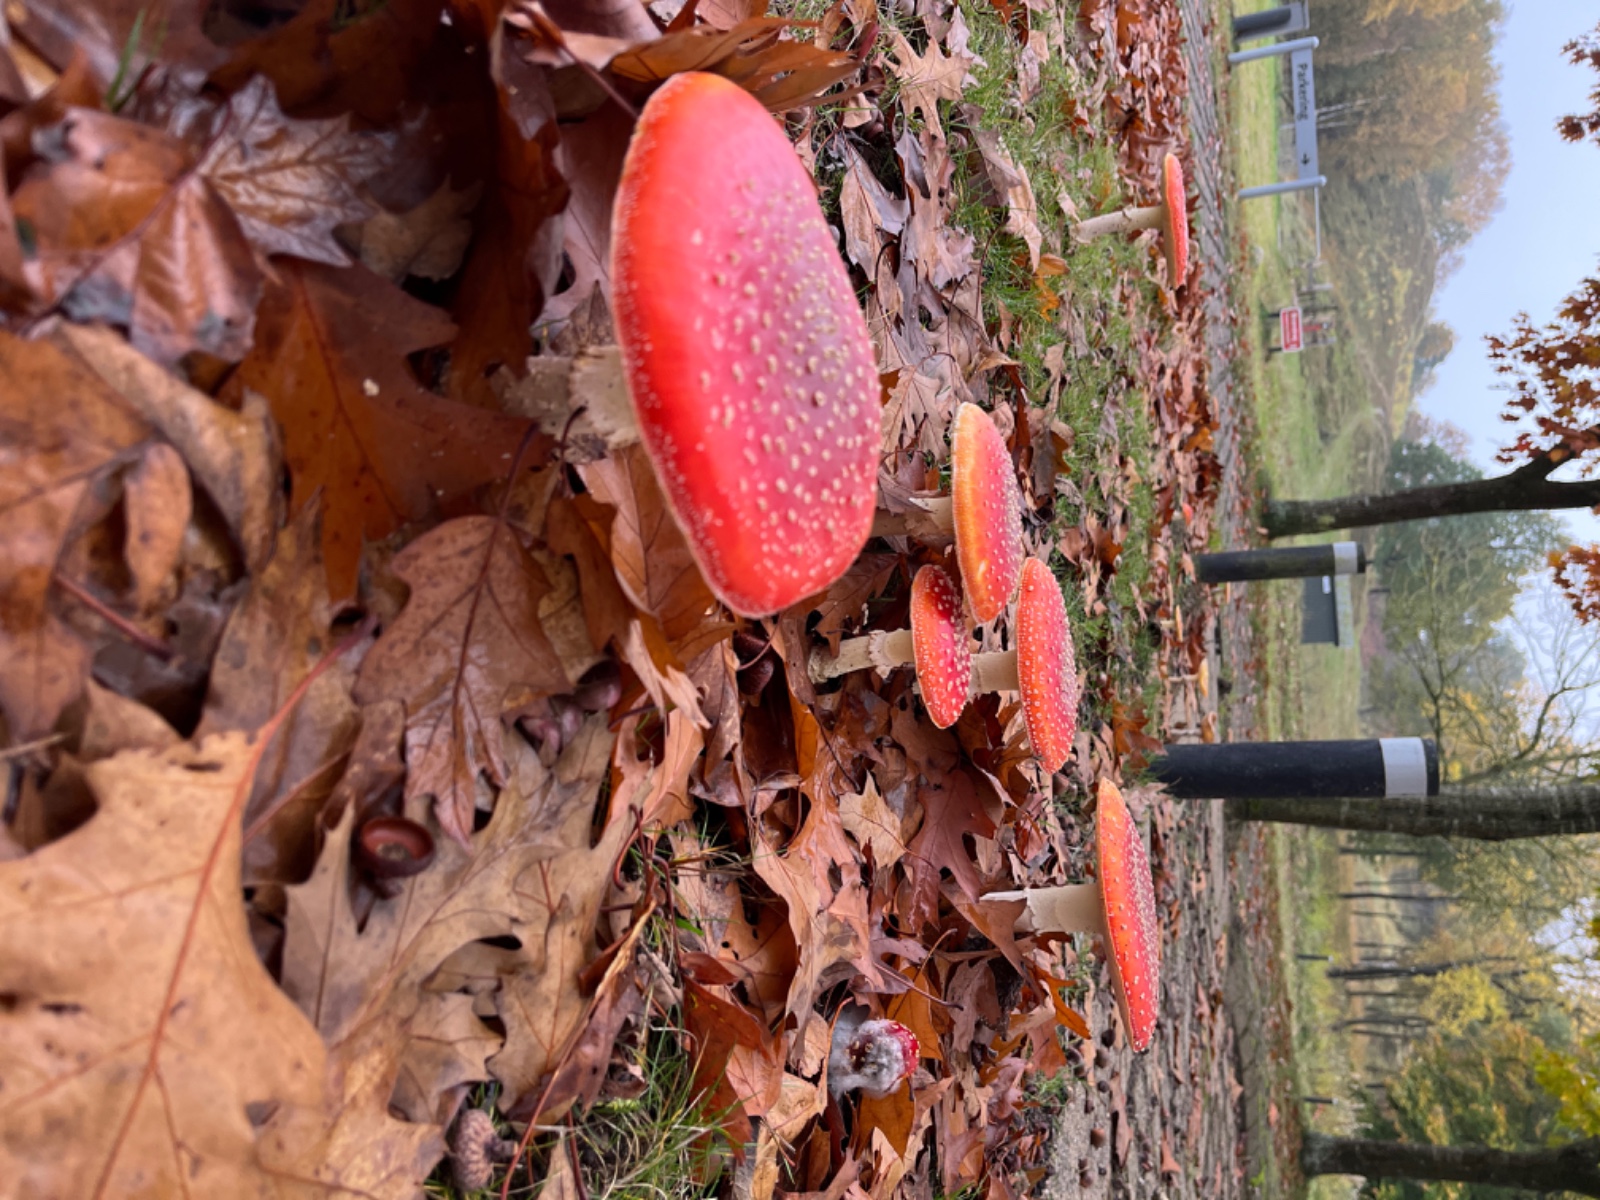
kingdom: Fungi
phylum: Basidiomycota
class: Agaricomycetes
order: Agaricales
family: Amanitaceae
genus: Amanita
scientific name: Amanita muscaria
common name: rød fluesvamp
